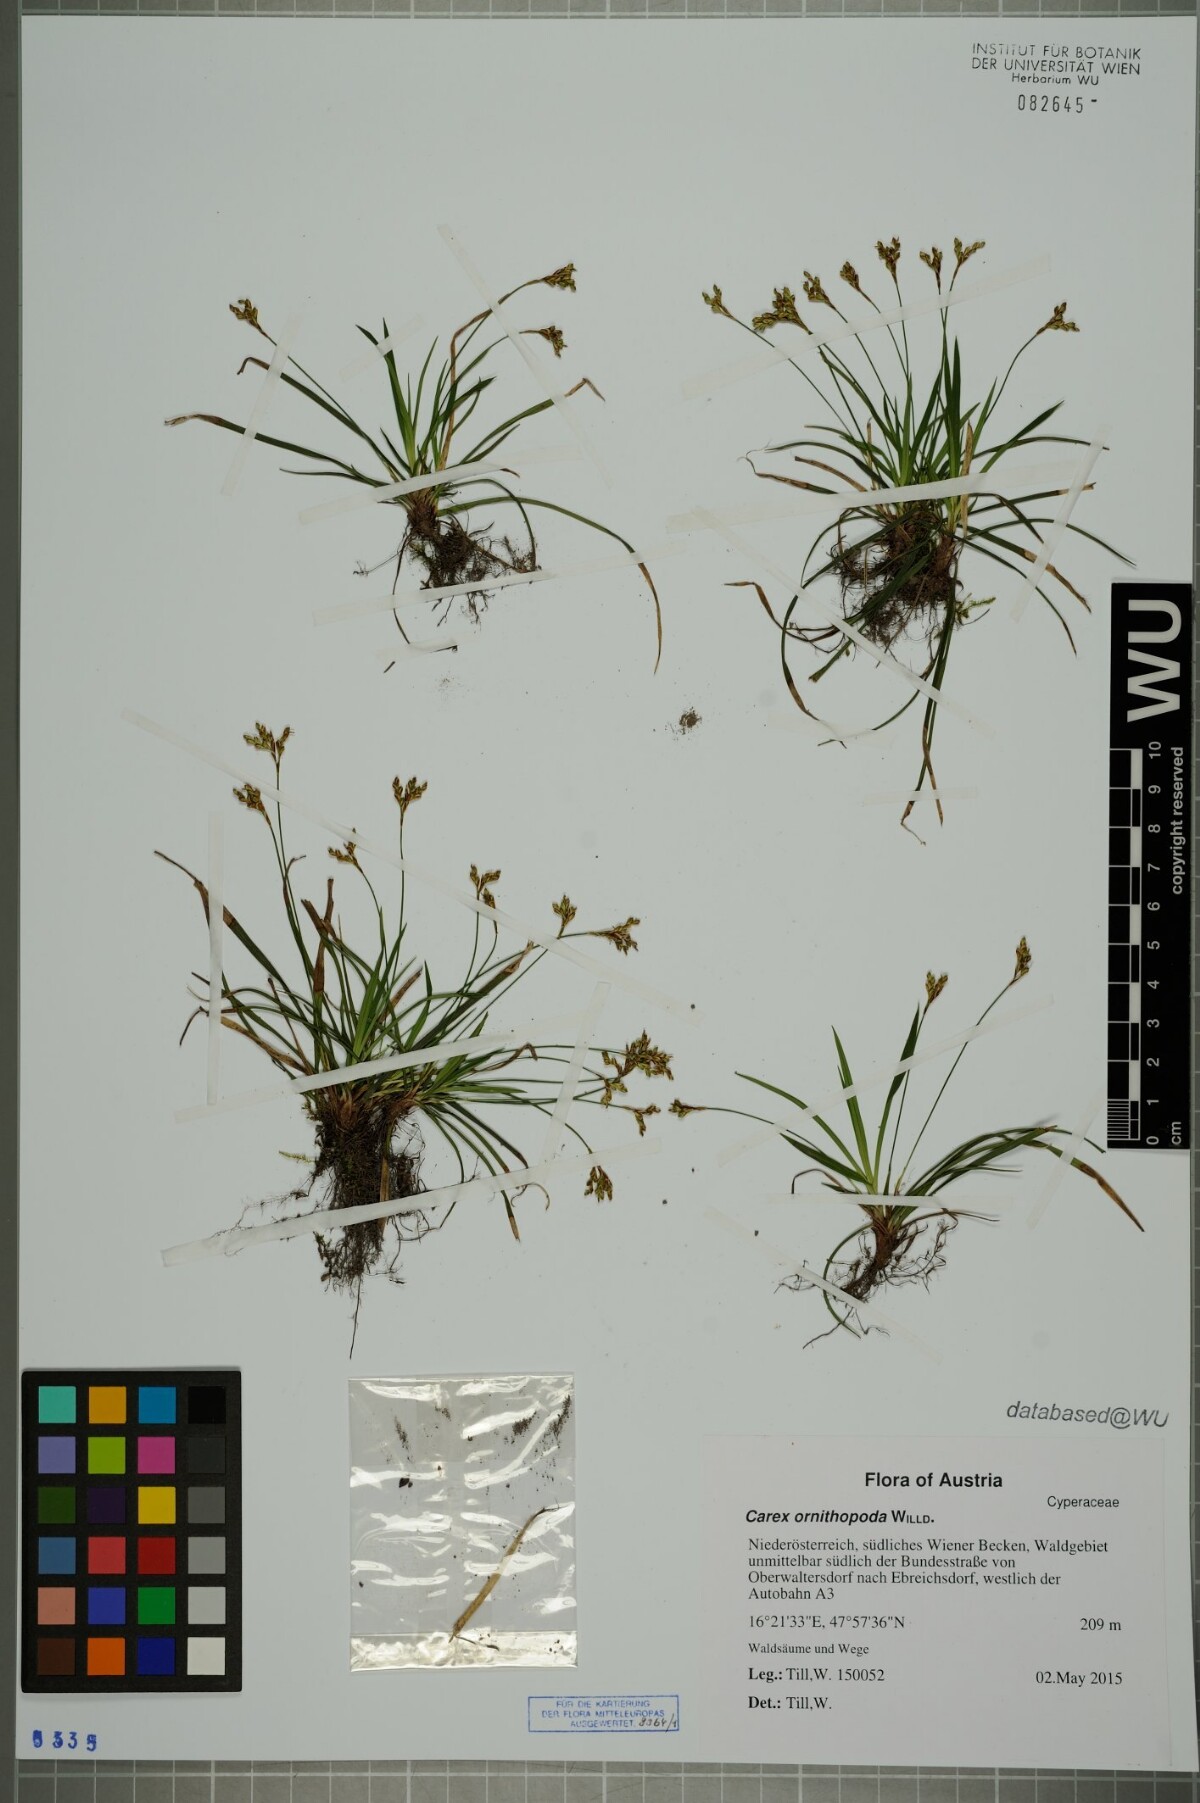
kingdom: Plantae
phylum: Tracheophyta
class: Liliopsida
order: Poales
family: Cyperaceae
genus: Carex
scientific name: Carex ornithopoda
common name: Bird's-foot sedge
